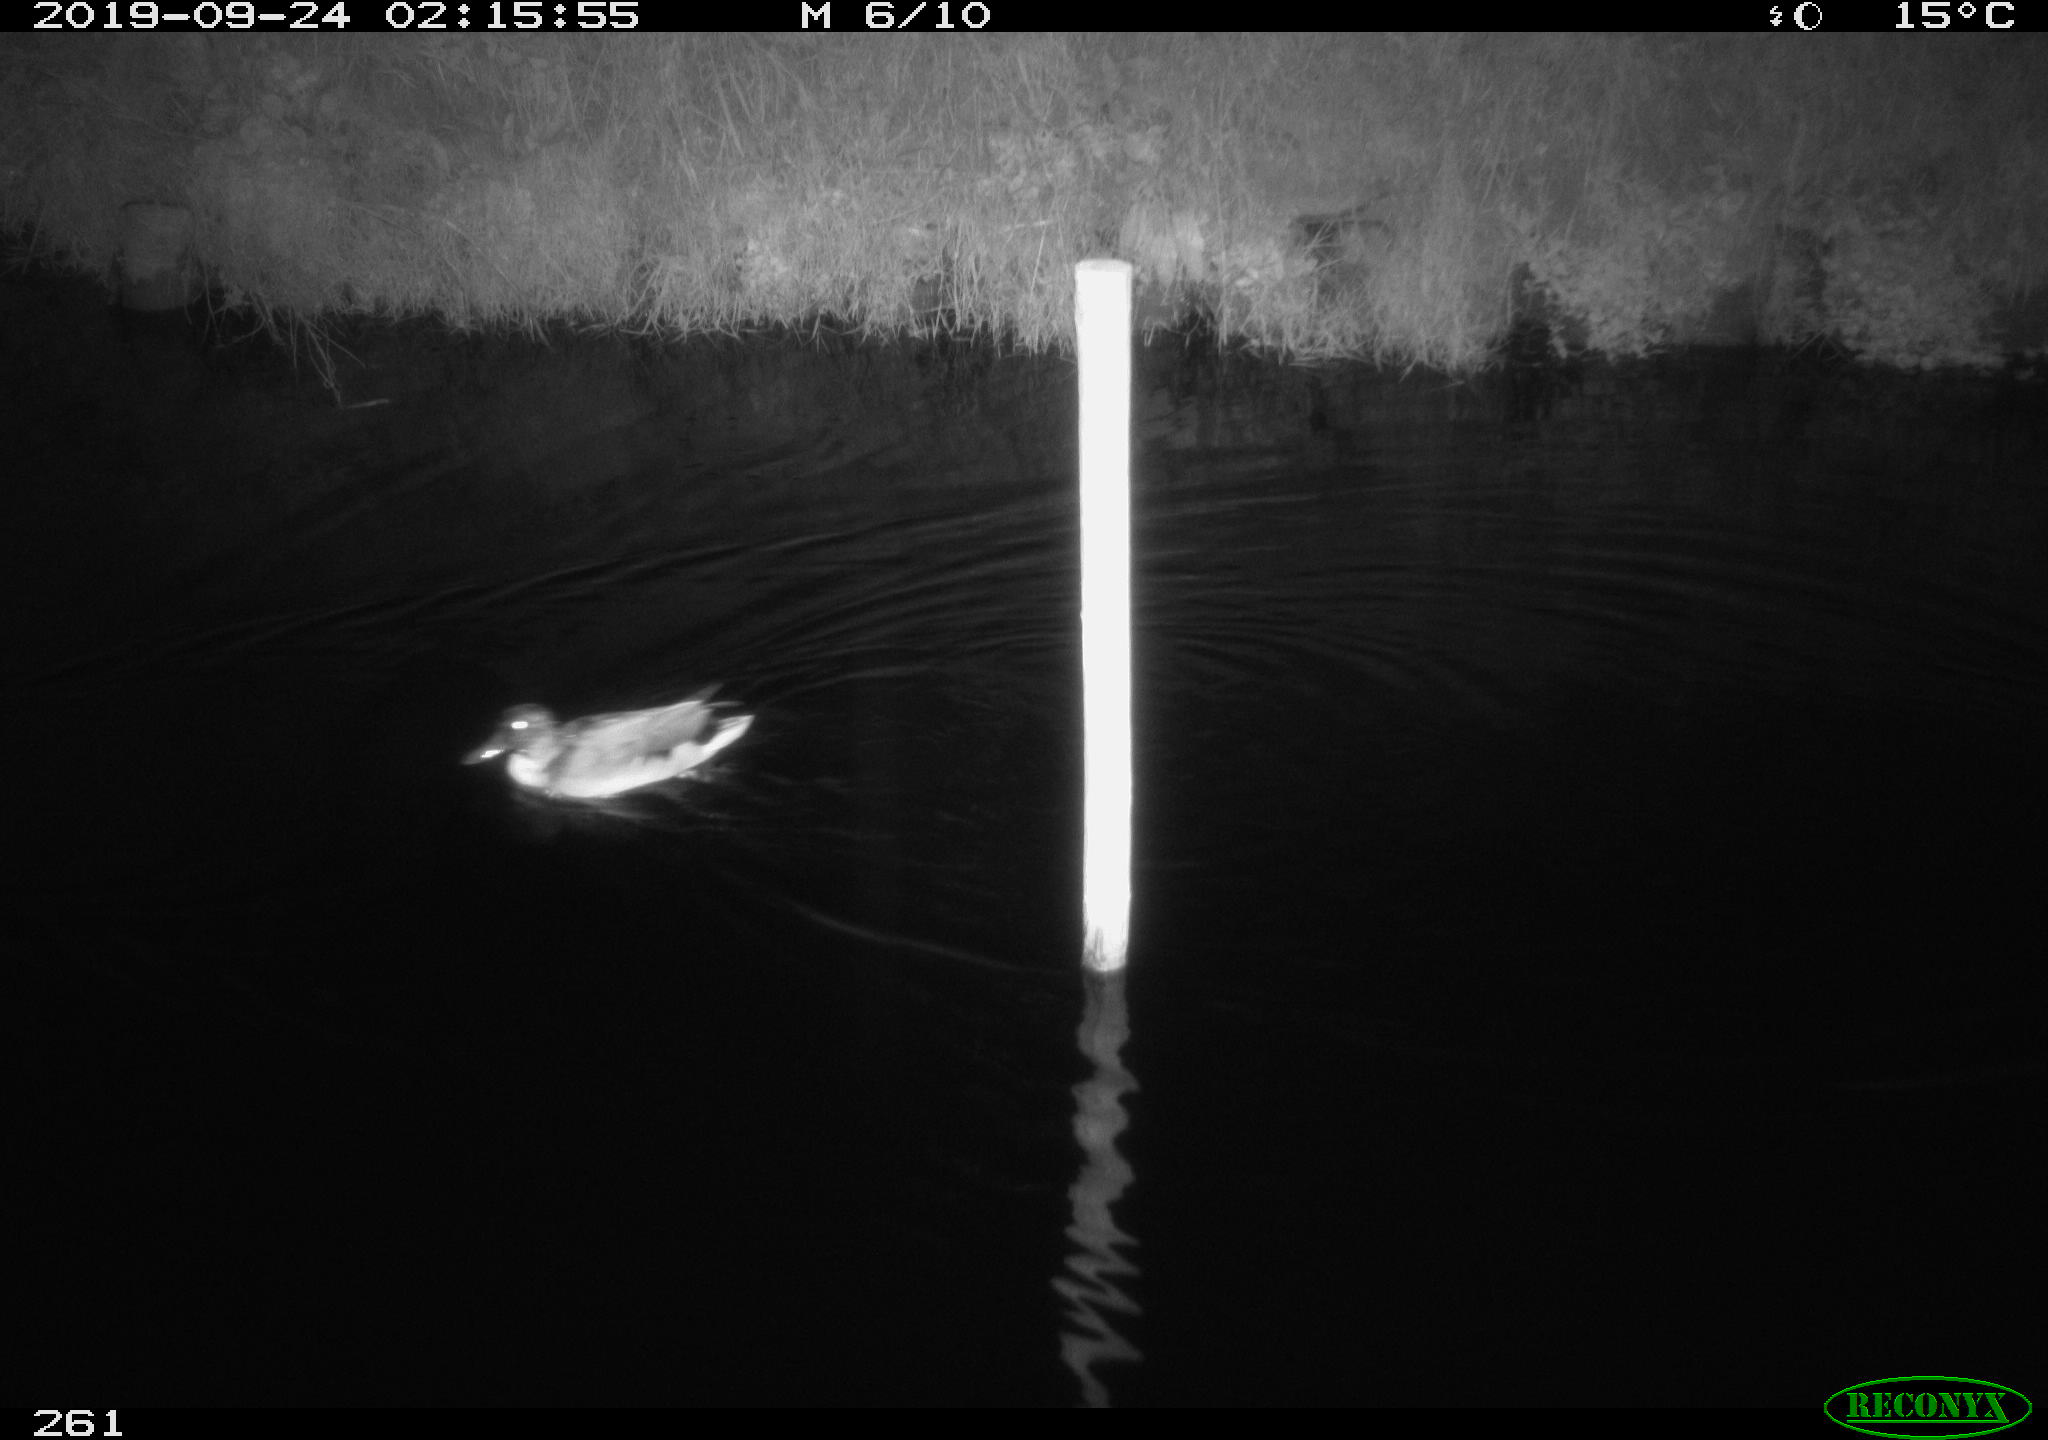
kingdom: Animalia
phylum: Chordata
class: Aves
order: Anseriformes
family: Anatidae
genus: Anas
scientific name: Anas platyrhynchos
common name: Mallard
